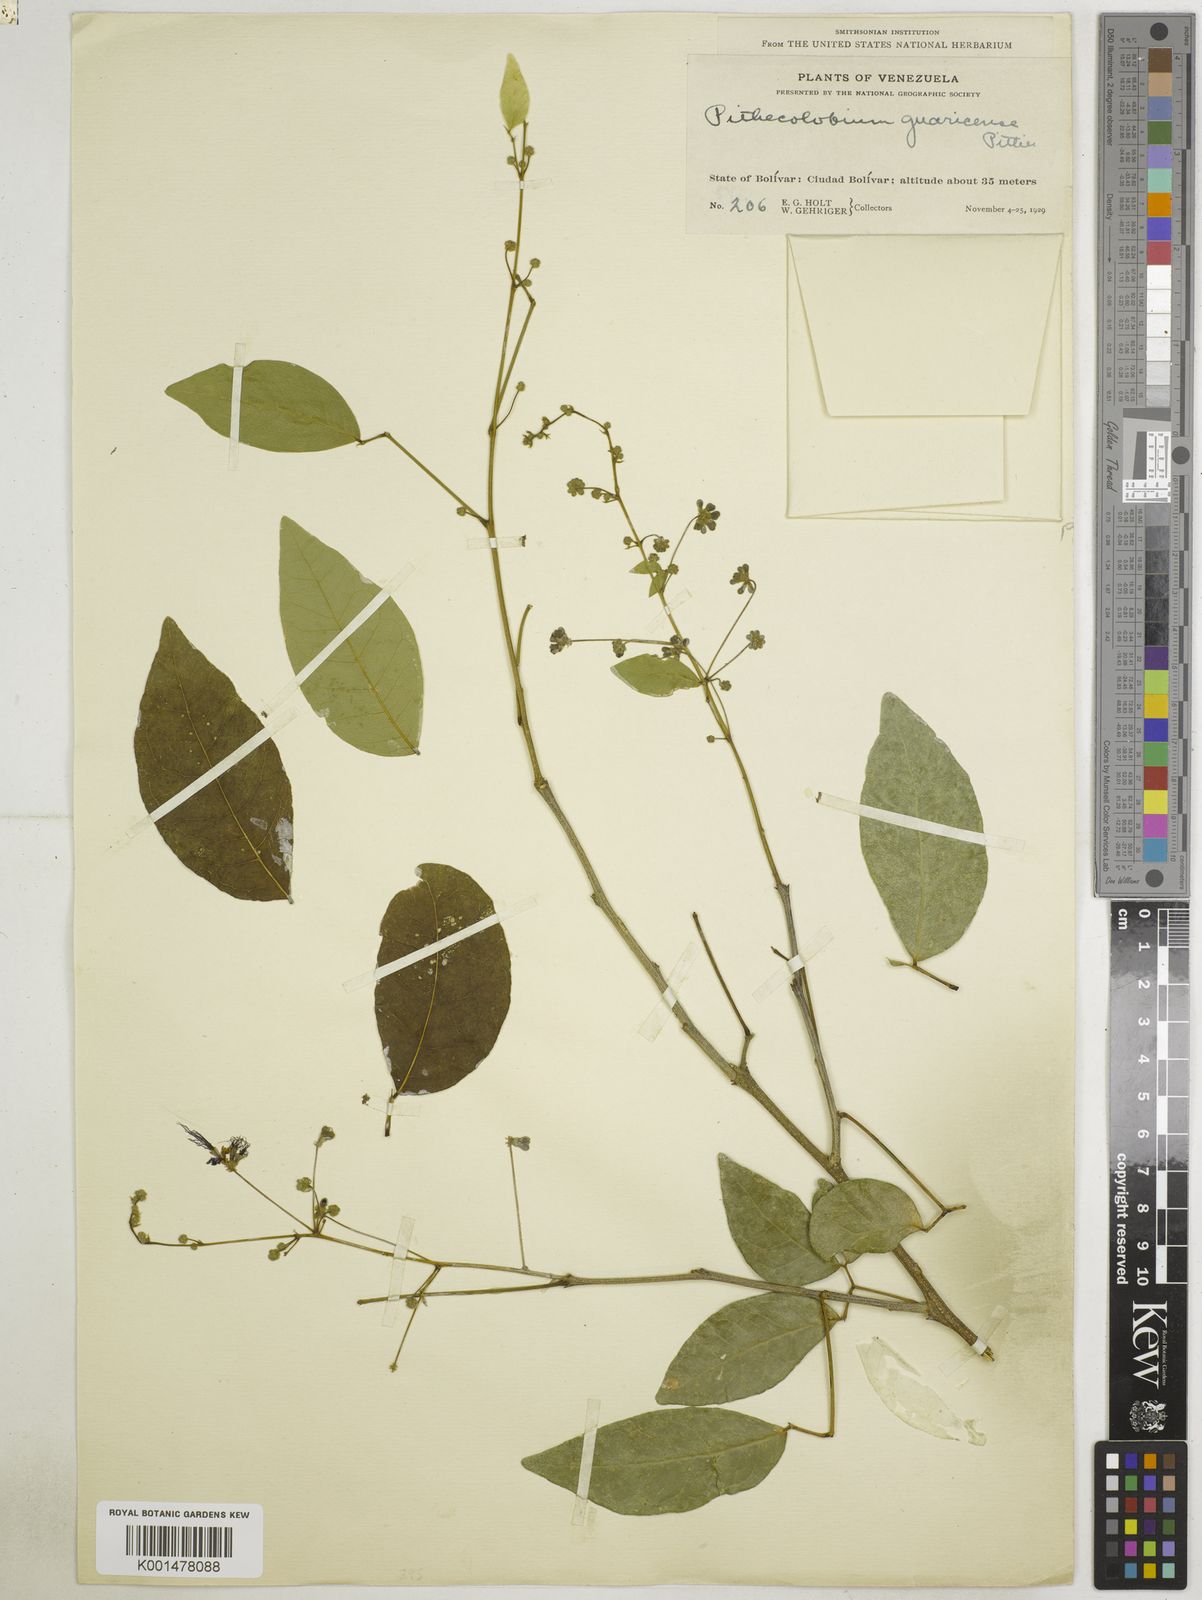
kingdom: Plantae
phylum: Tracheophyta
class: Magnoliopsida
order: Fabales
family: Fabaceae
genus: Pithecellobium
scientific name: Pithecellobium unguis-cati
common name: Cat's-claw
